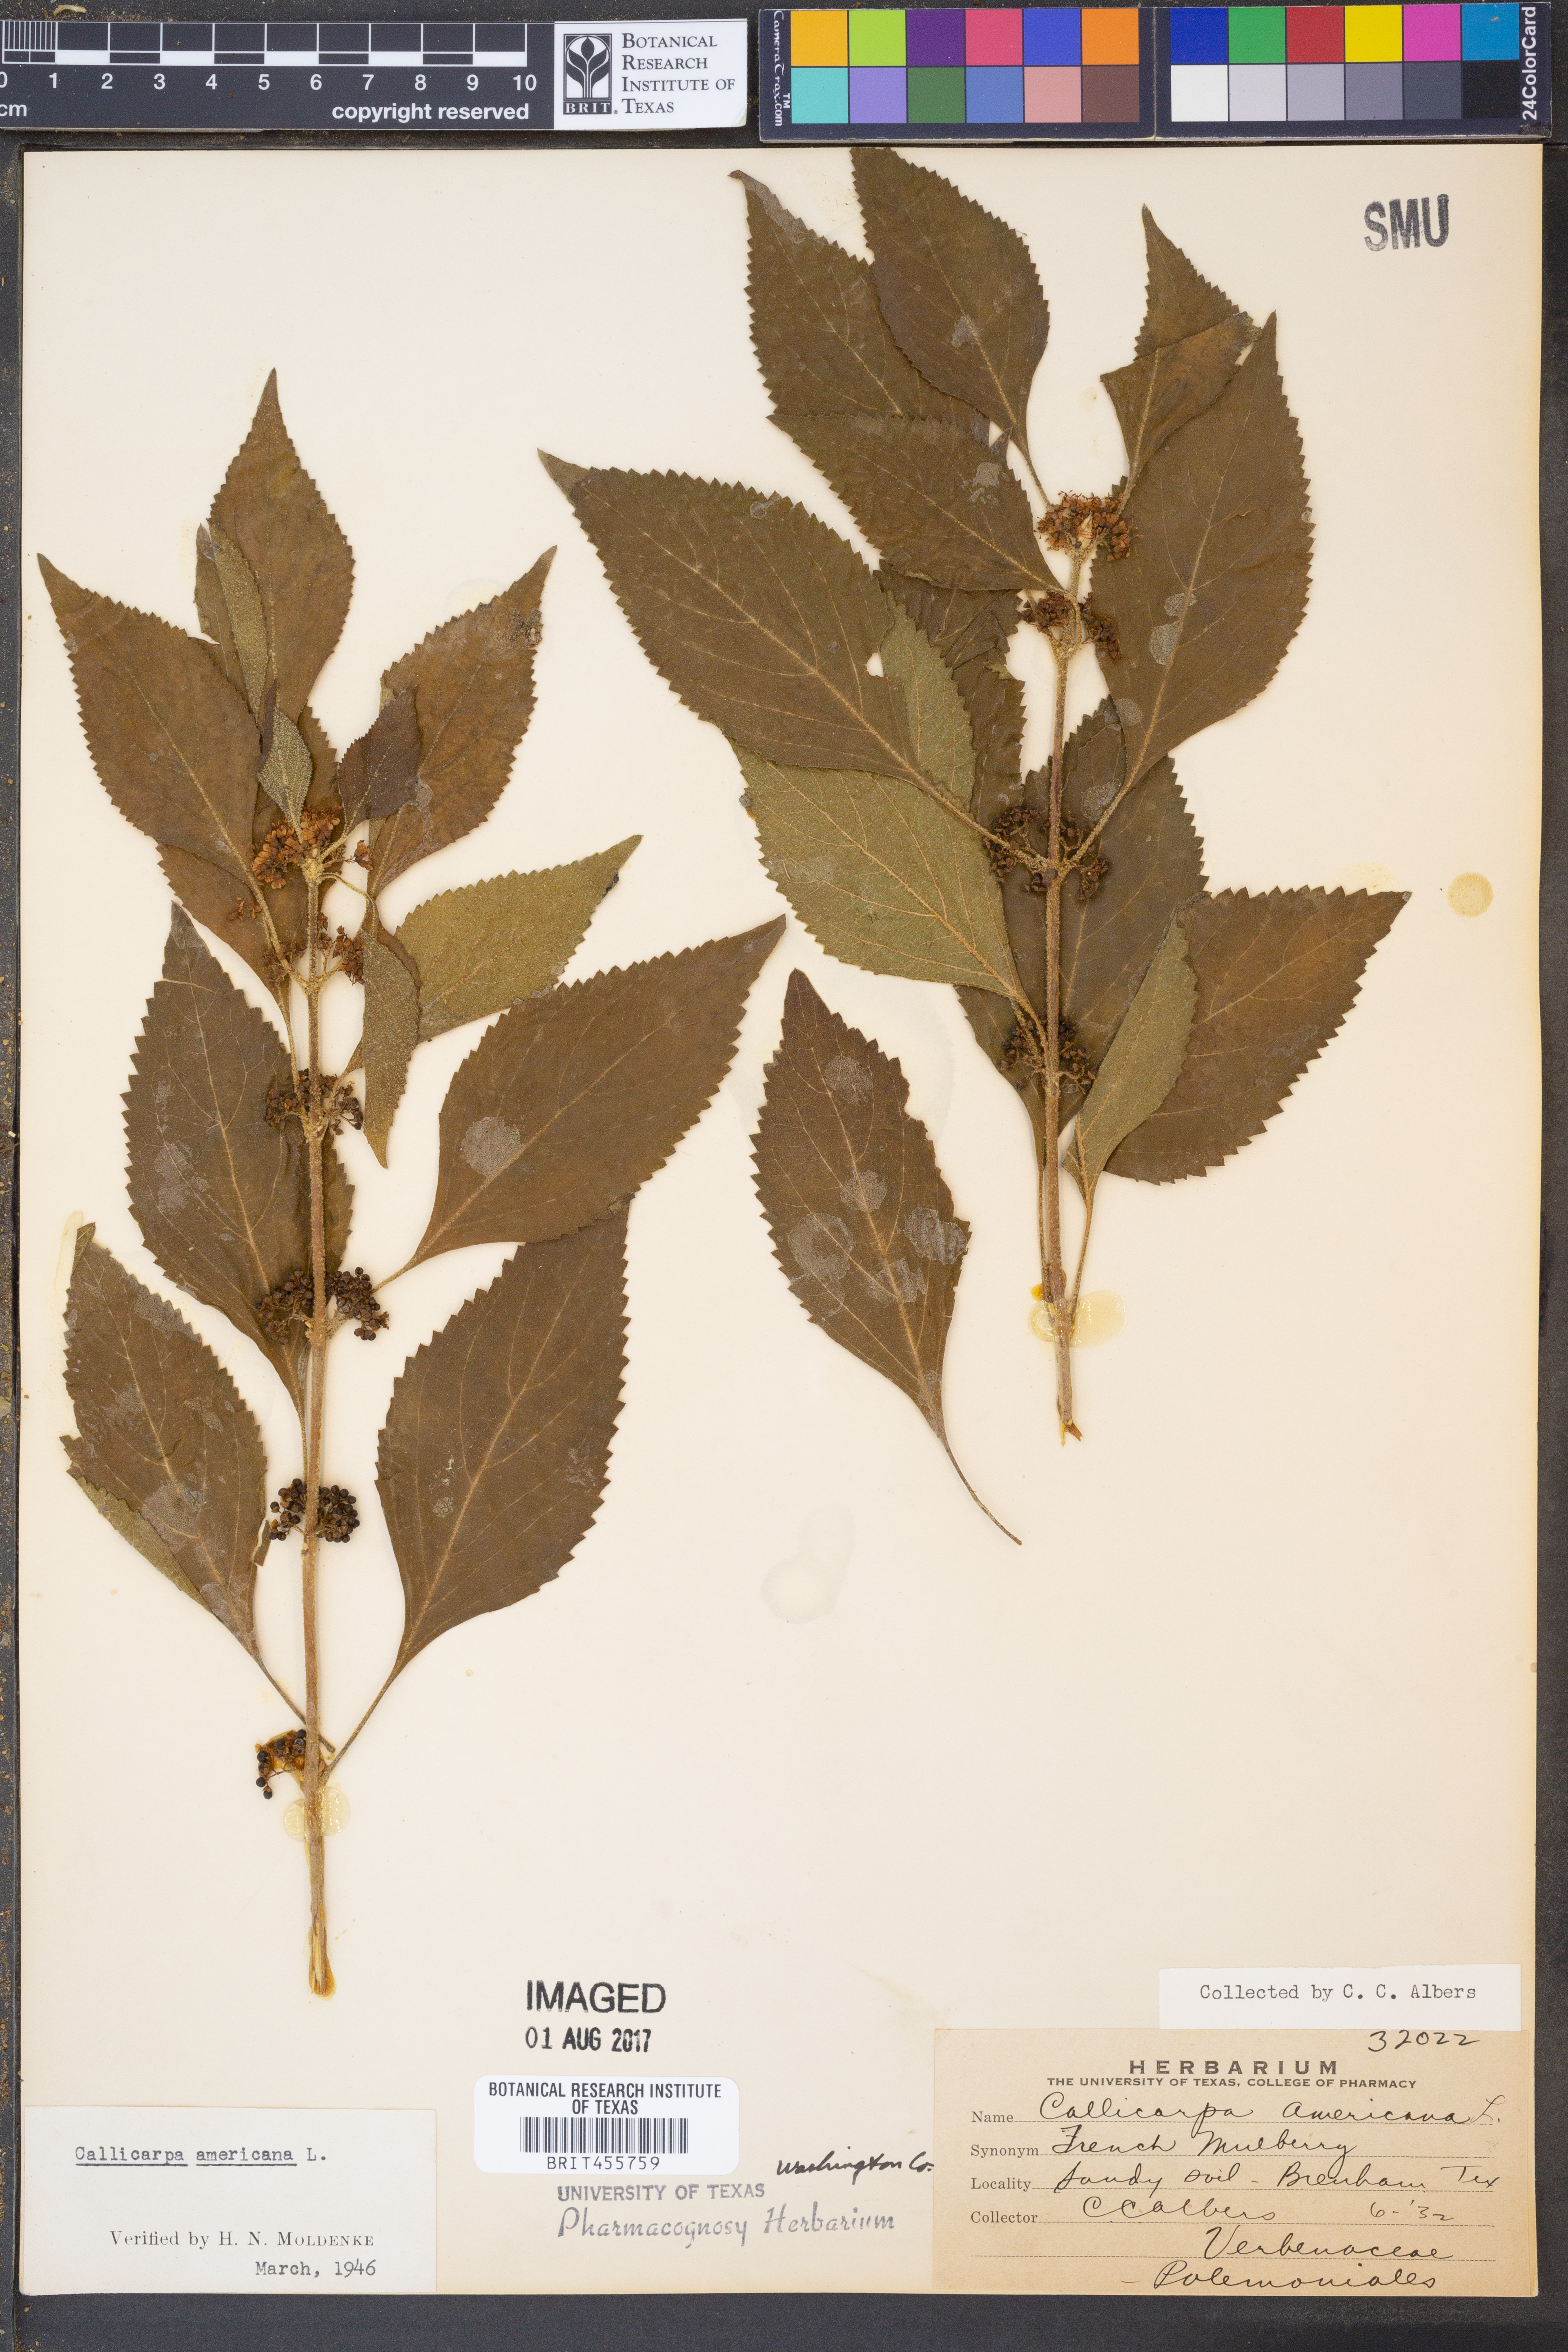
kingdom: Plantae
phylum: Tracheophyta
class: Magnoliopsida
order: Lamiales
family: Lamiaceae
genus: Callicarpa
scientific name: Callicarpa americana
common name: American beautyberry
